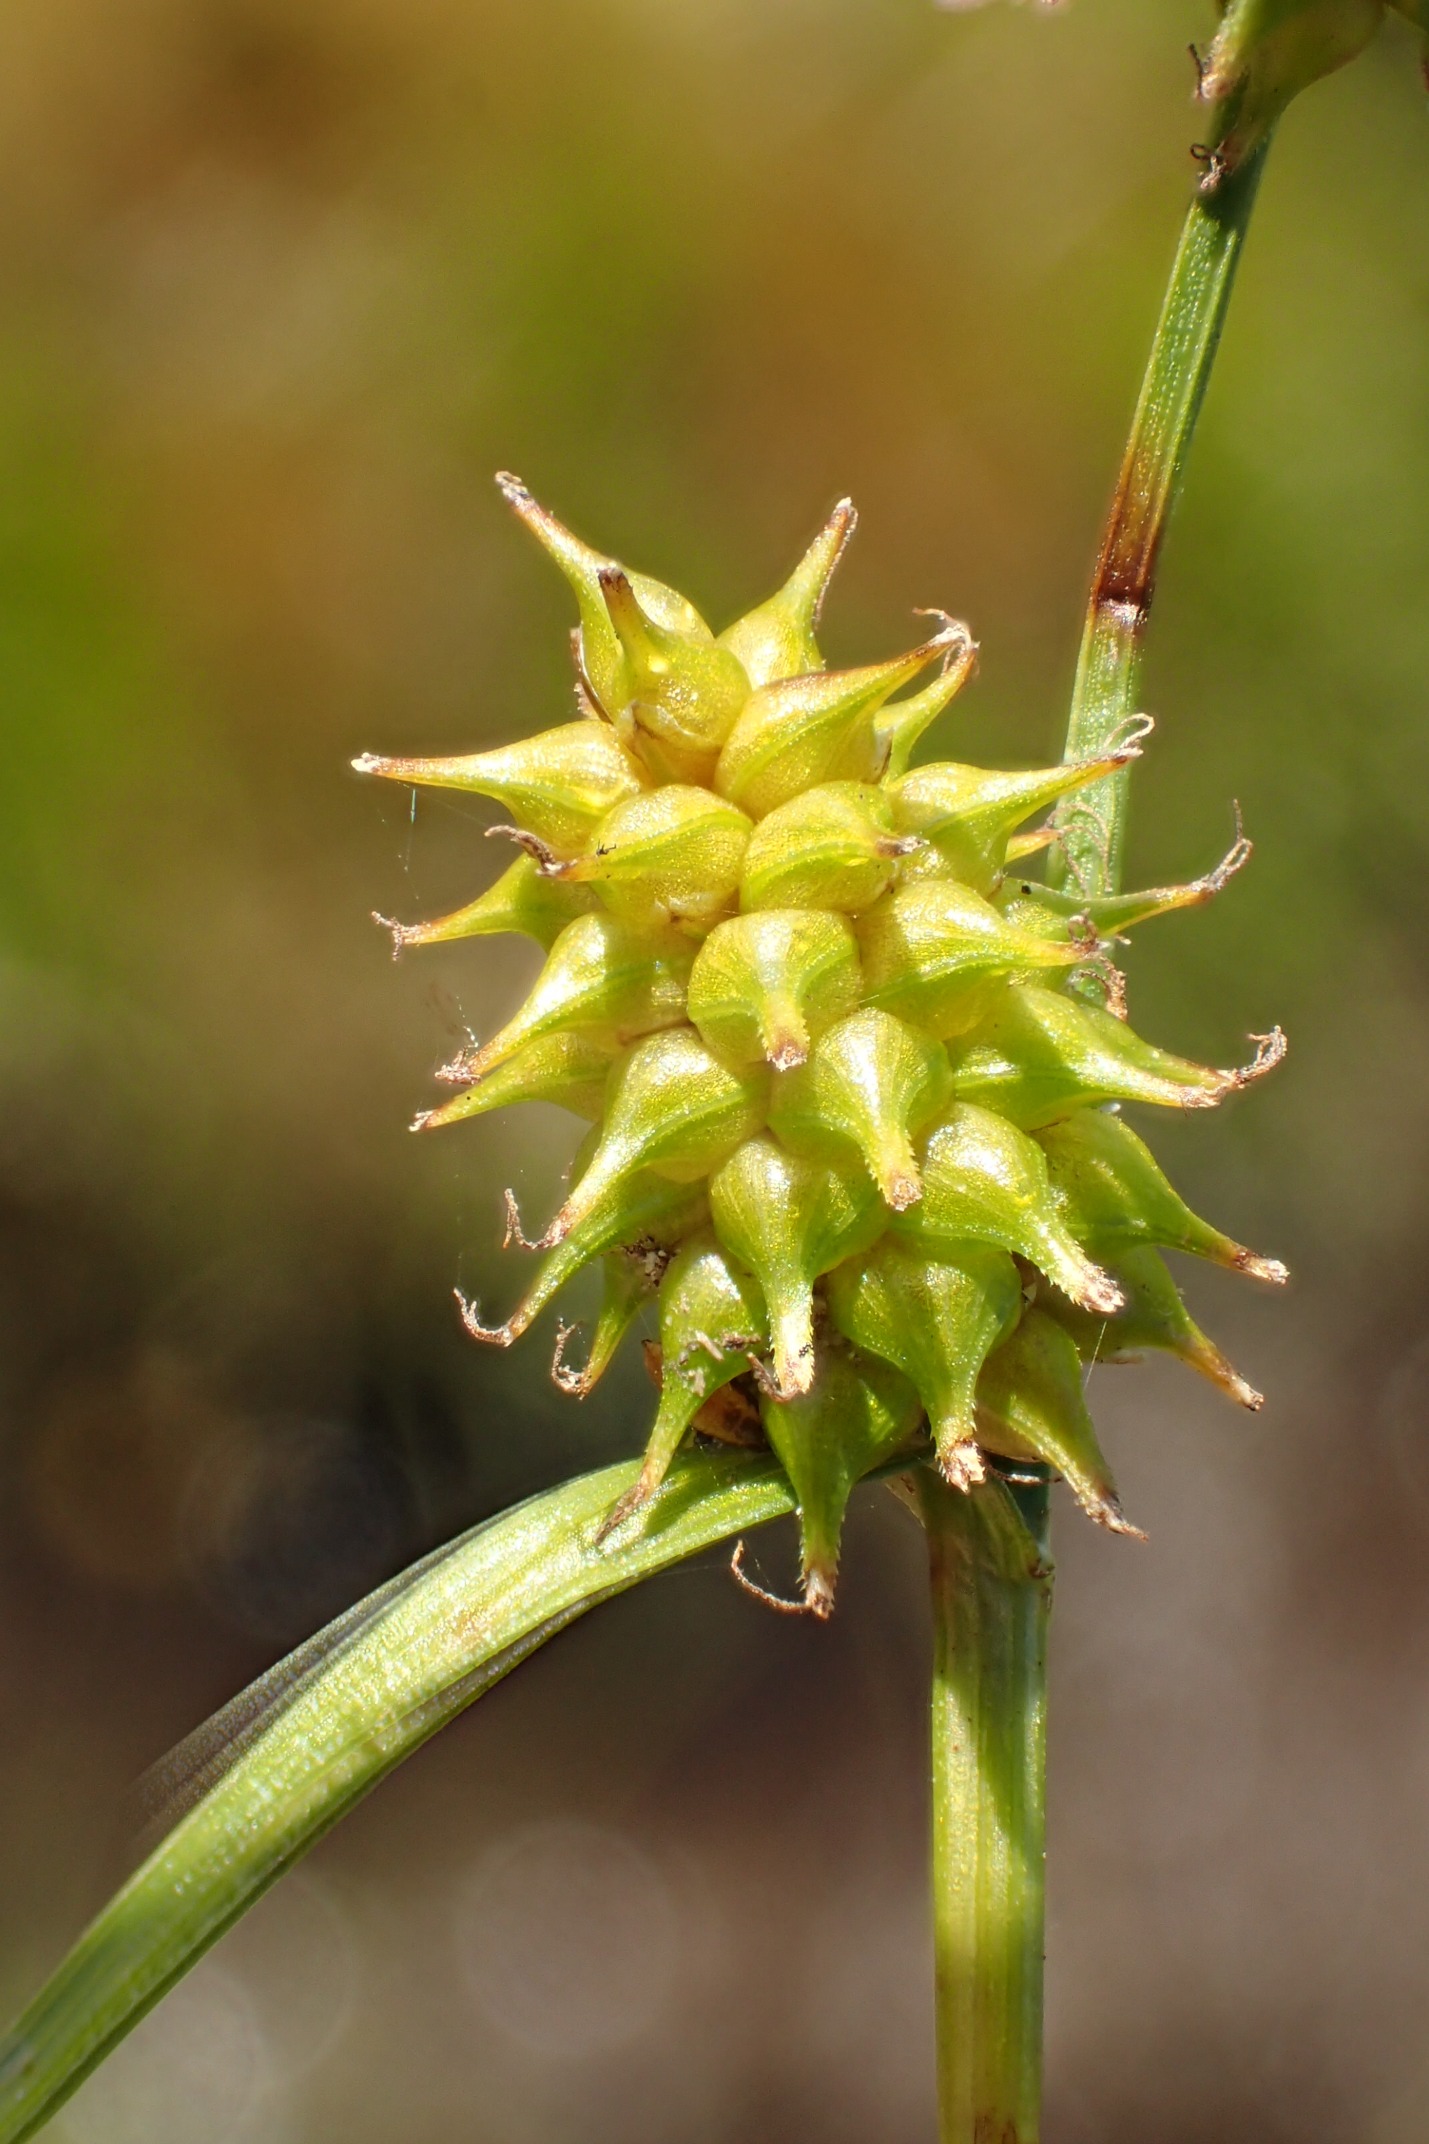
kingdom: Plantae
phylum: Tracheophyta
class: Liliopsida
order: Poales
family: Cyperaceae
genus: Carex
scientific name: Carex lepidocarpa
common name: Krognæb-star
